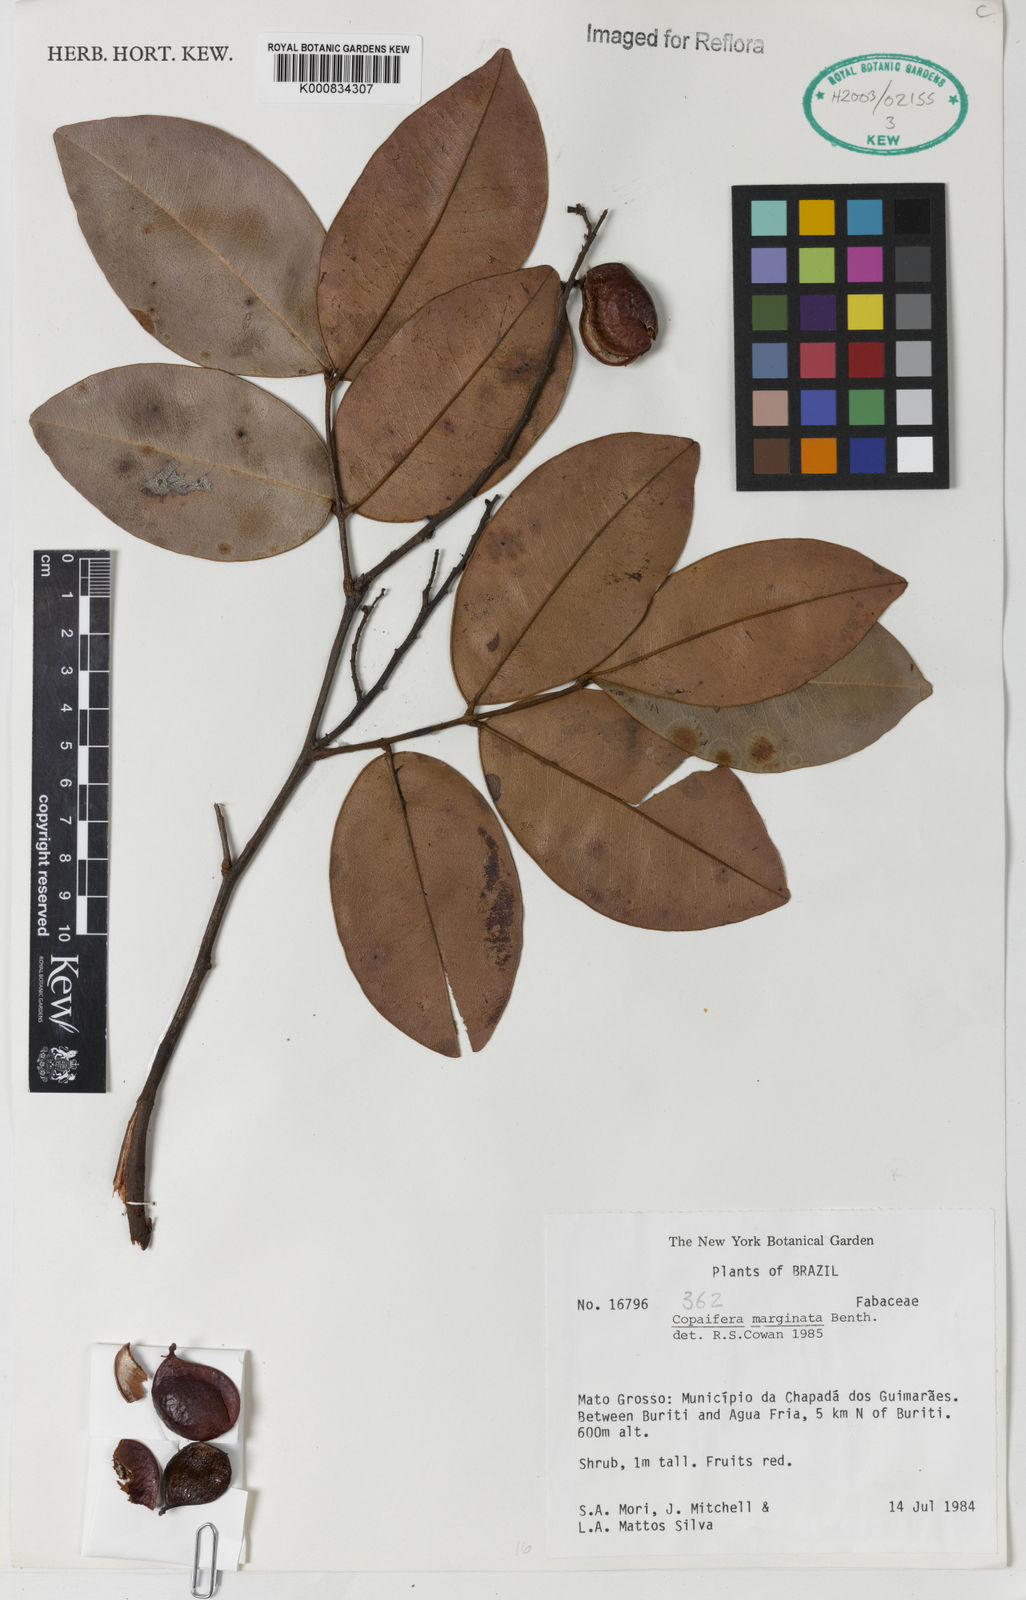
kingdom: Plantae
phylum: Tracheophyta
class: Magnoliopsida
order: Fabales
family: Fabaceae
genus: Copaifera
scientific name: Copaifera marginata
